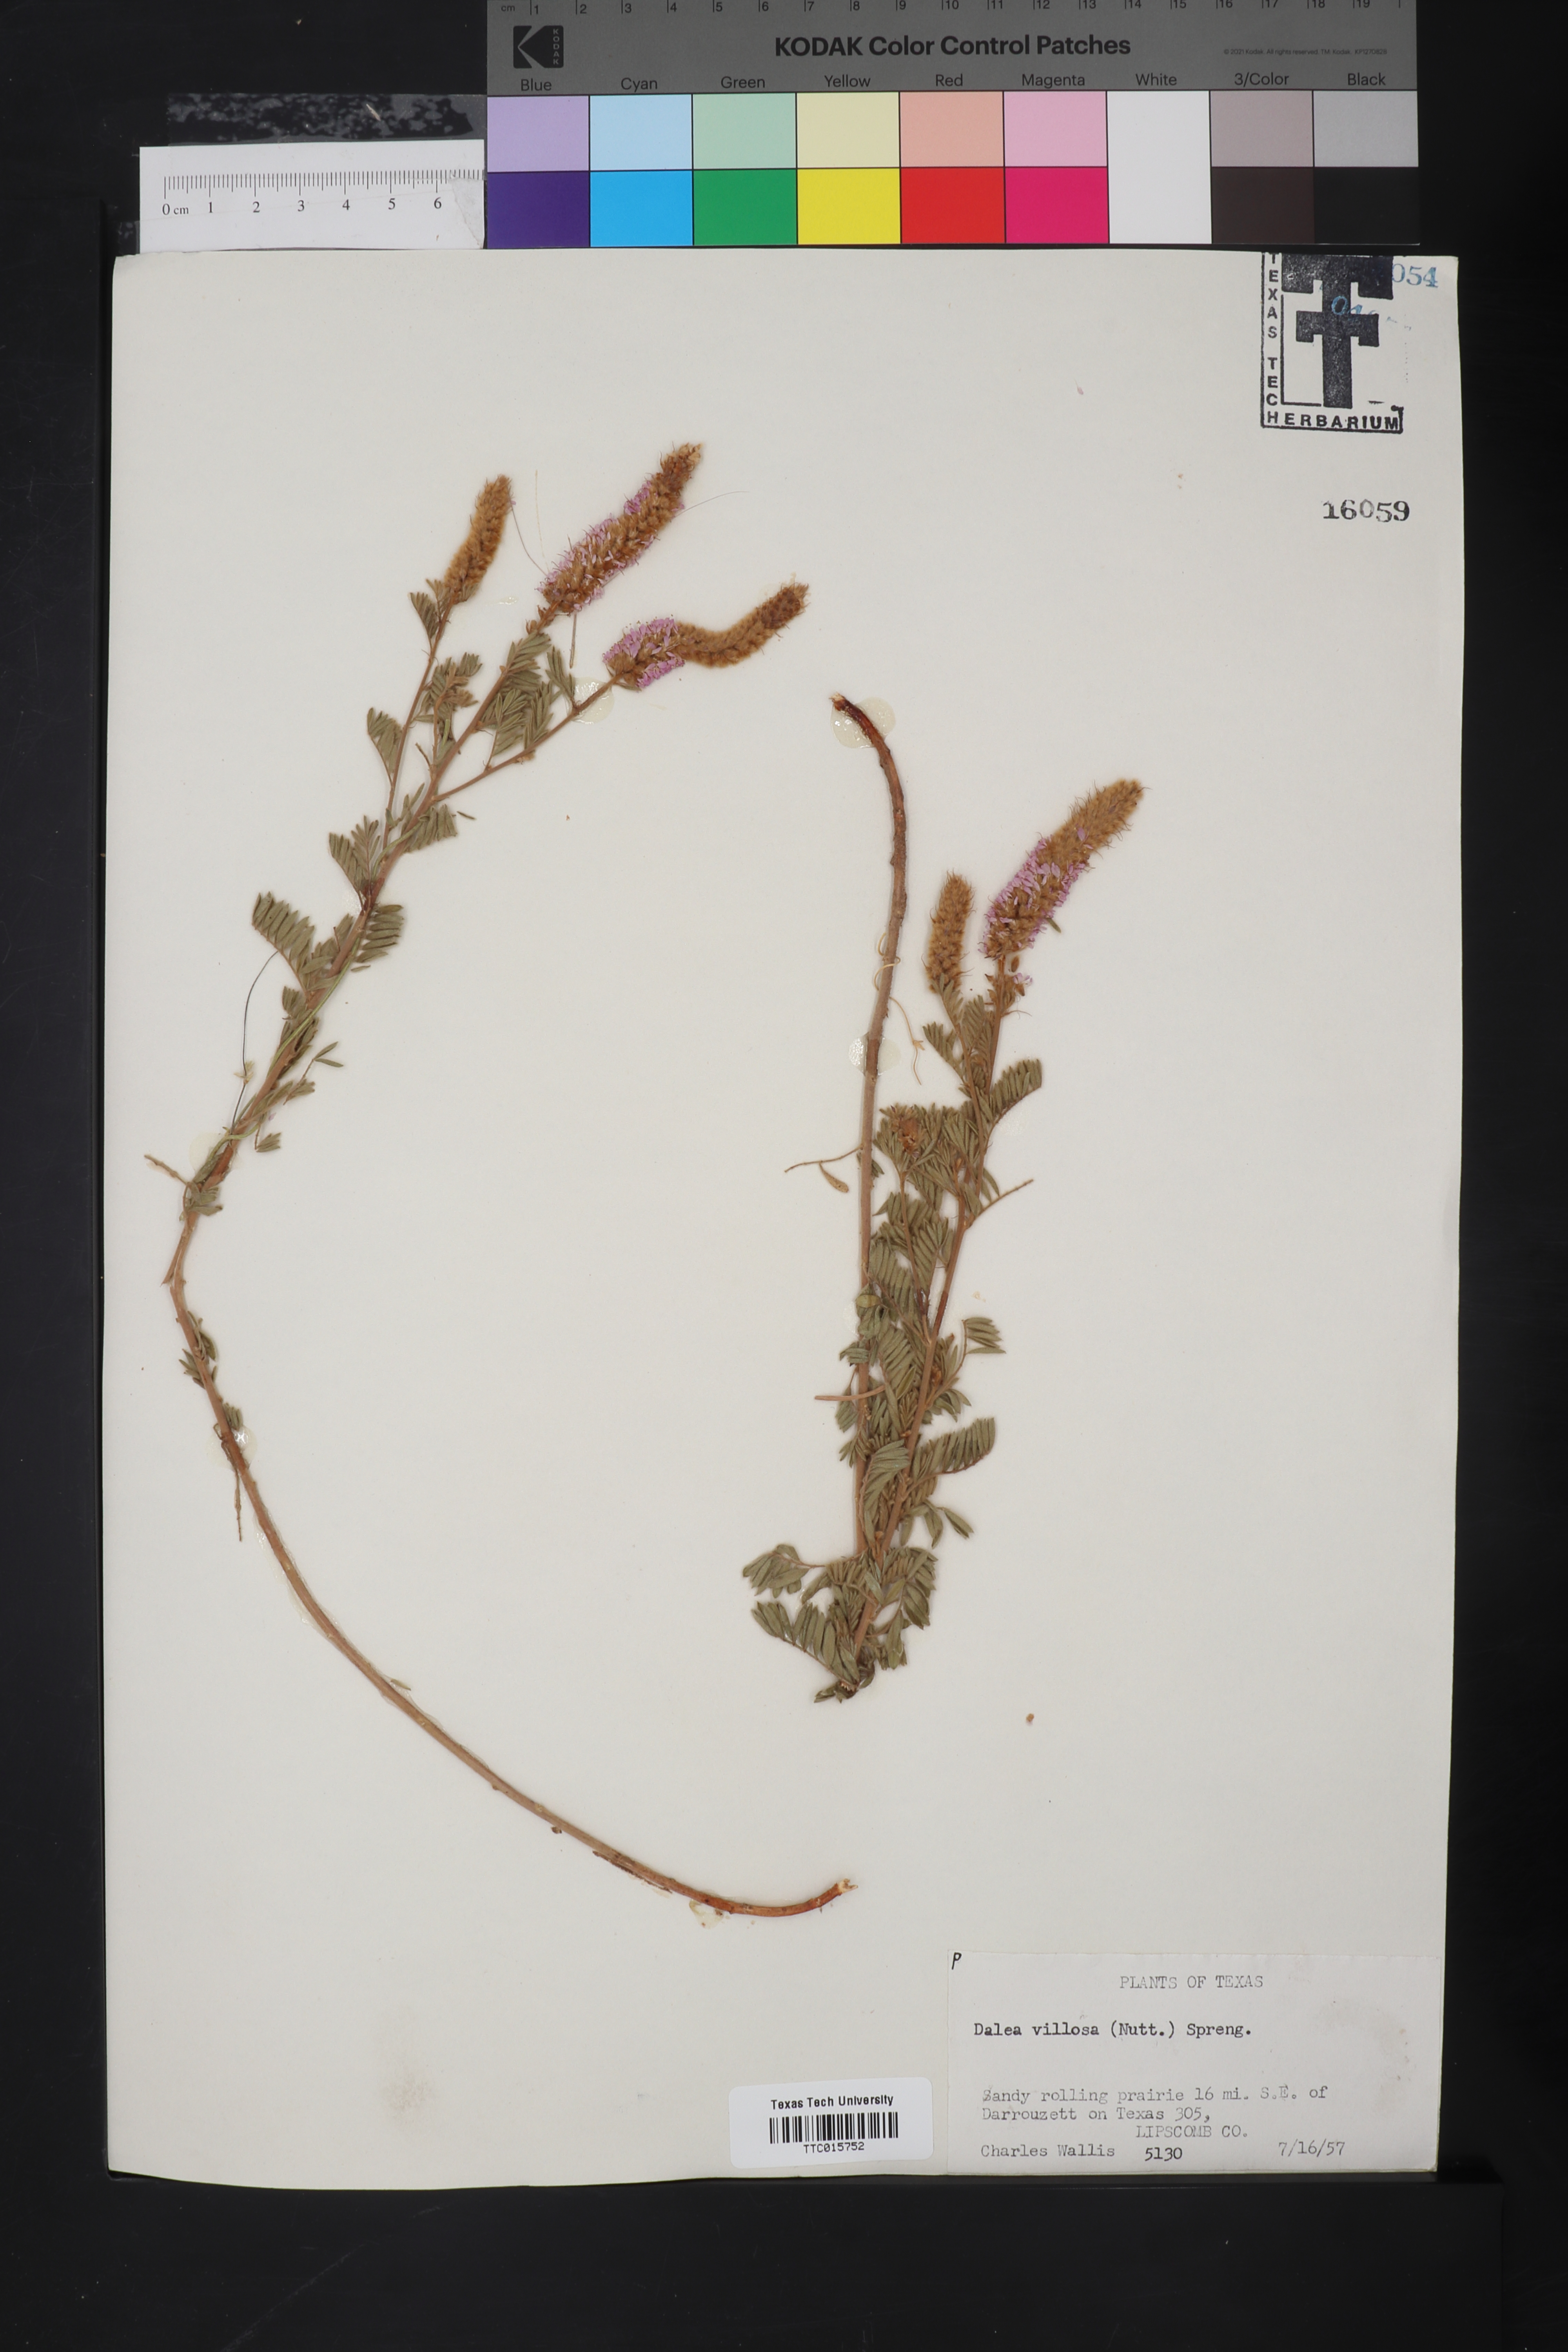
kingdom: Plantae
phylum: Tracheophyta
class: Magnoliopsida
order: Fabales
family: Fabaceae
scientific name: Fabaceae
